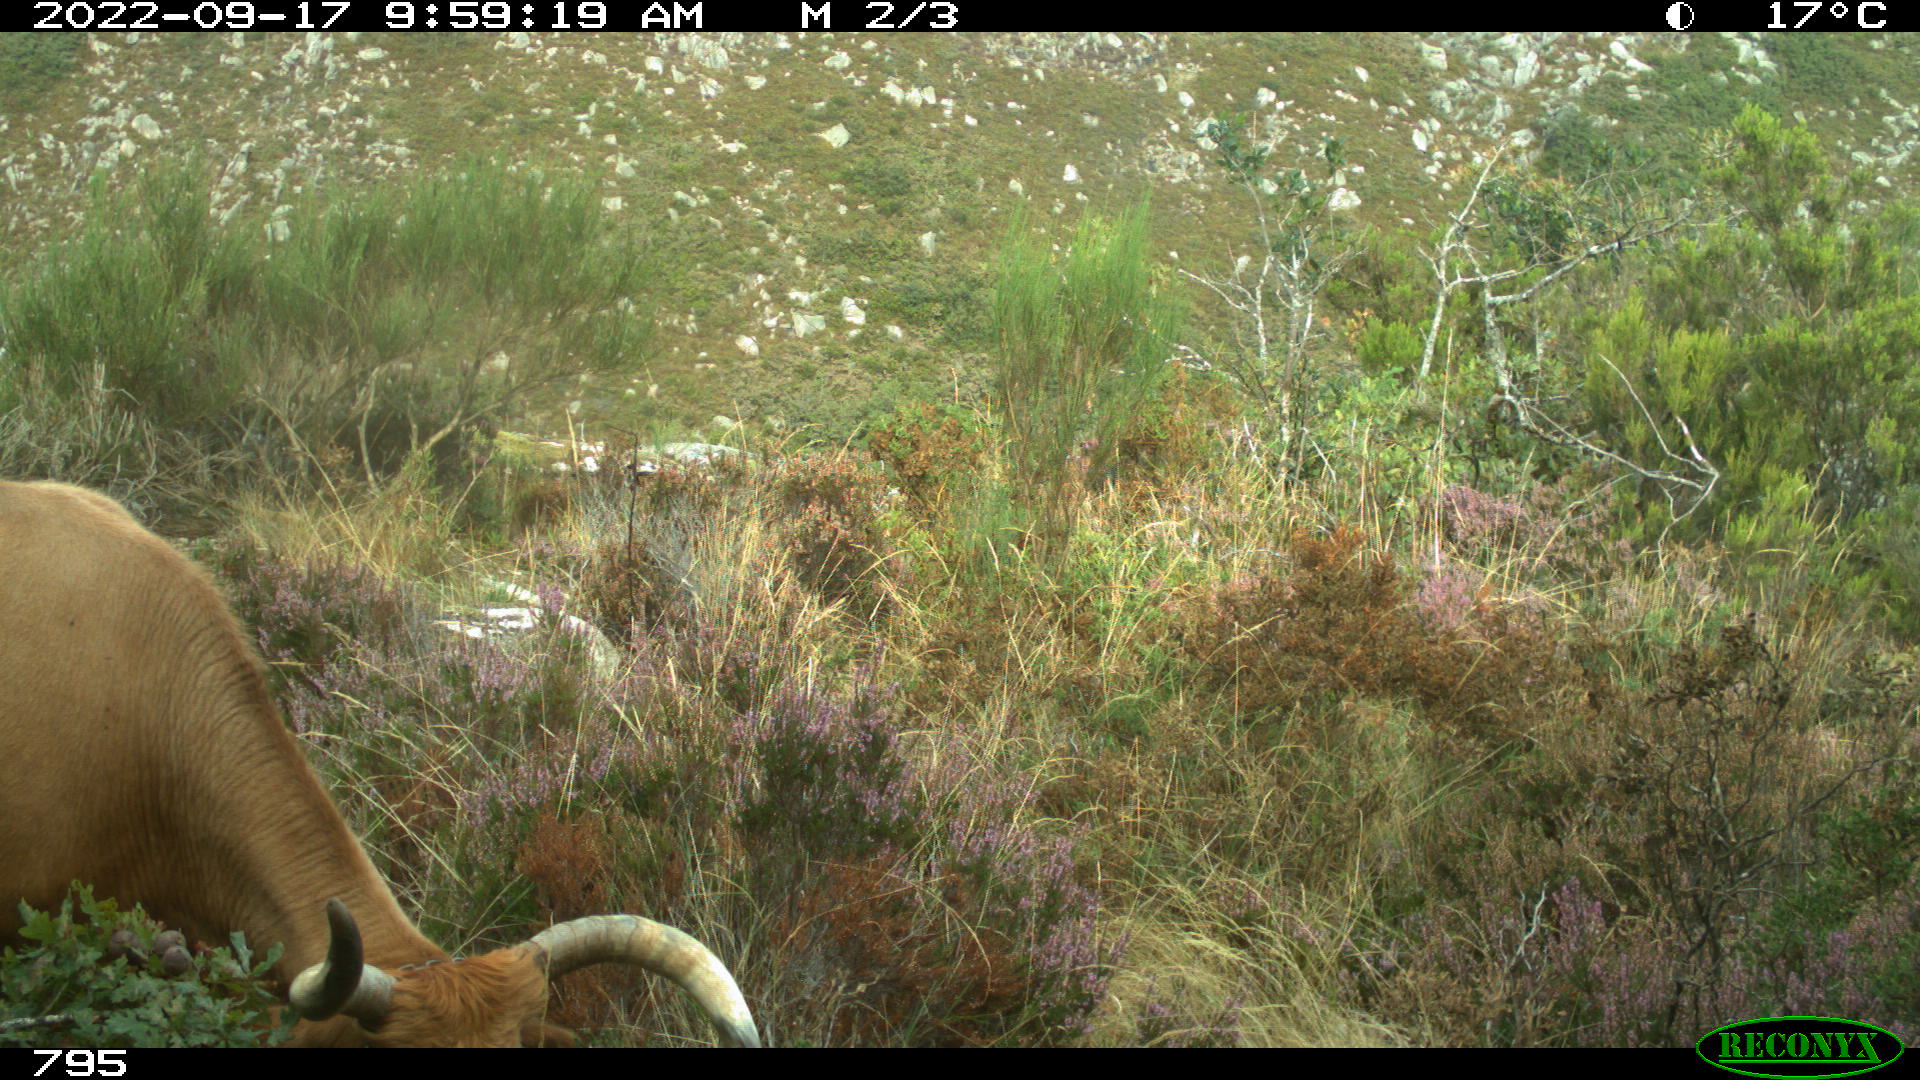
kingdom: Animalia
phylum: Chordata
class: Mammalia
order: Artiodactyla
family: Bovidae
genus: Bos
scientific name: Bos taurus
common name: Domesticated cattle
